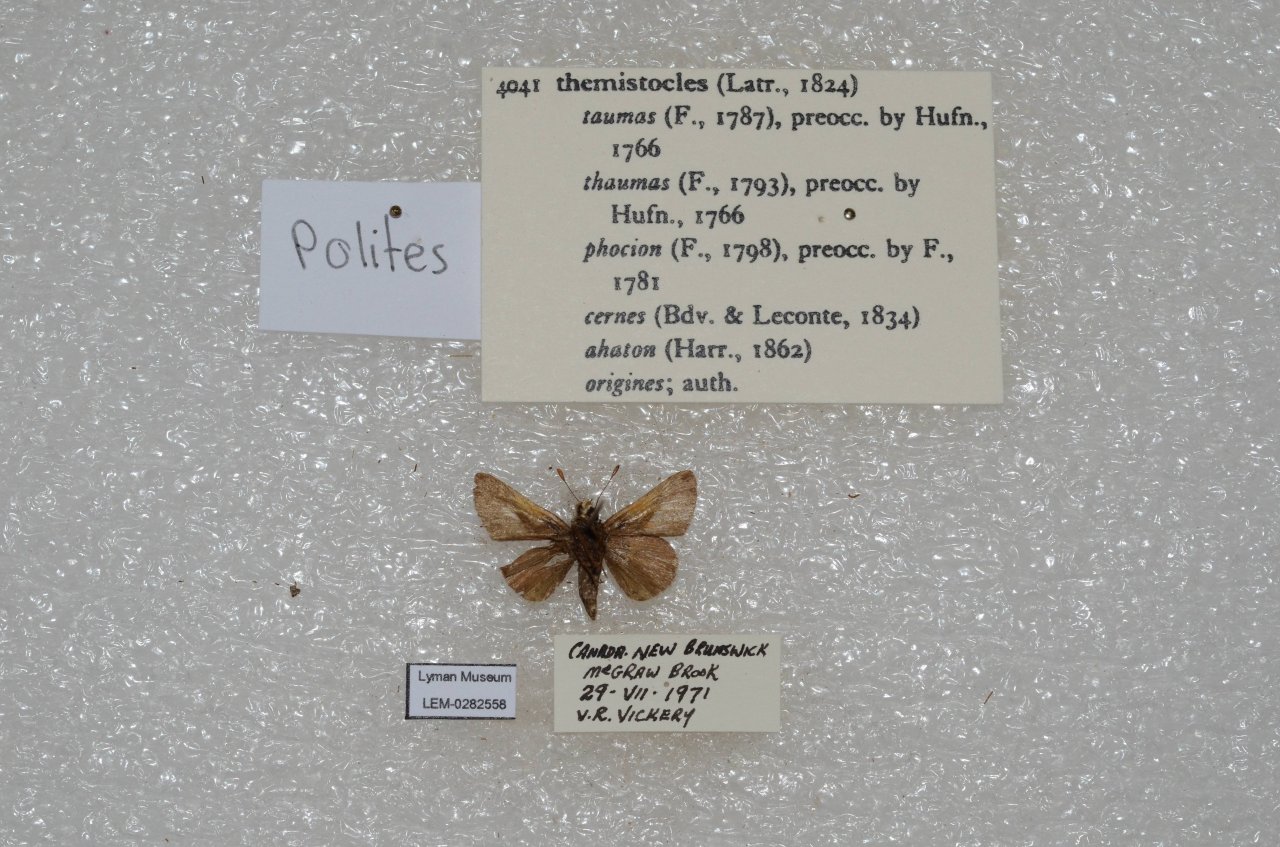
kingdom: Animalia
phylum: Arthropoda
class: Insecta
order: Lepidoptera
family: Hesperiidae
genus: Polites
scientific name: Polites themistocles
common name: Tawny-edged Skipper
